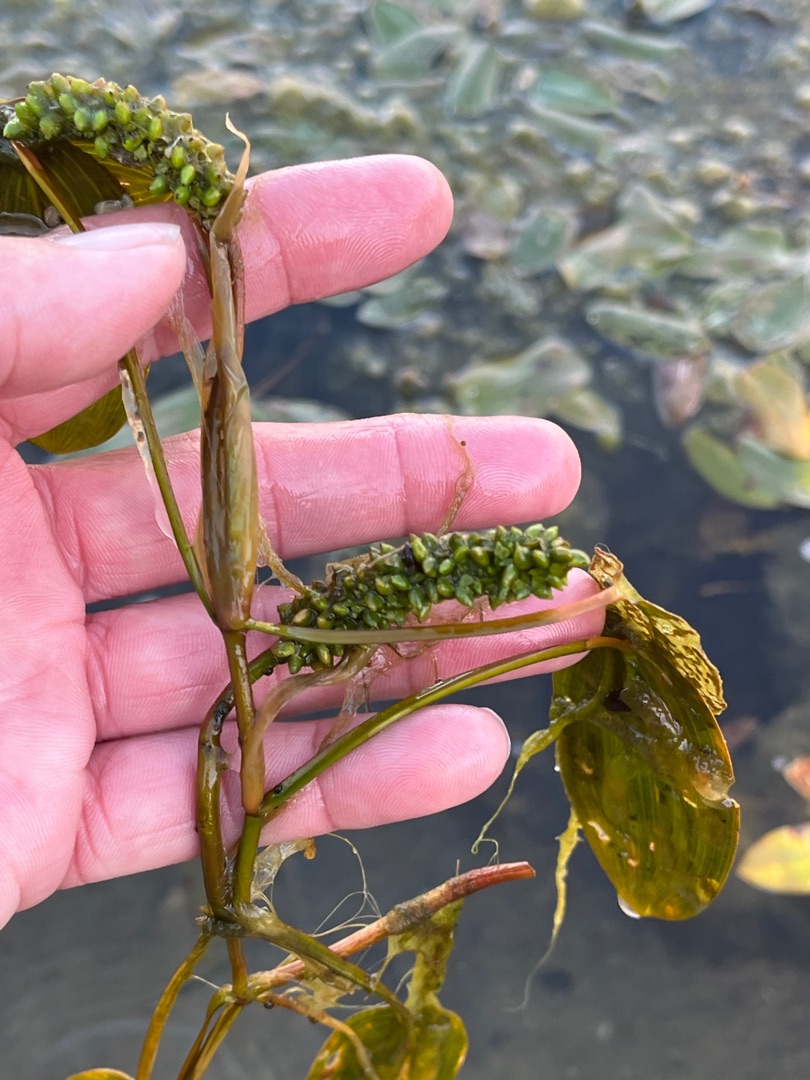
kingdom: Plantae
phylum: Tracheophyta
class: Liliopsida
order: Alismatales
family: Potamogetonaceae
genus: Potamogeton
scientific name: Potamogeton natans
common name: Svømmende vandaks
